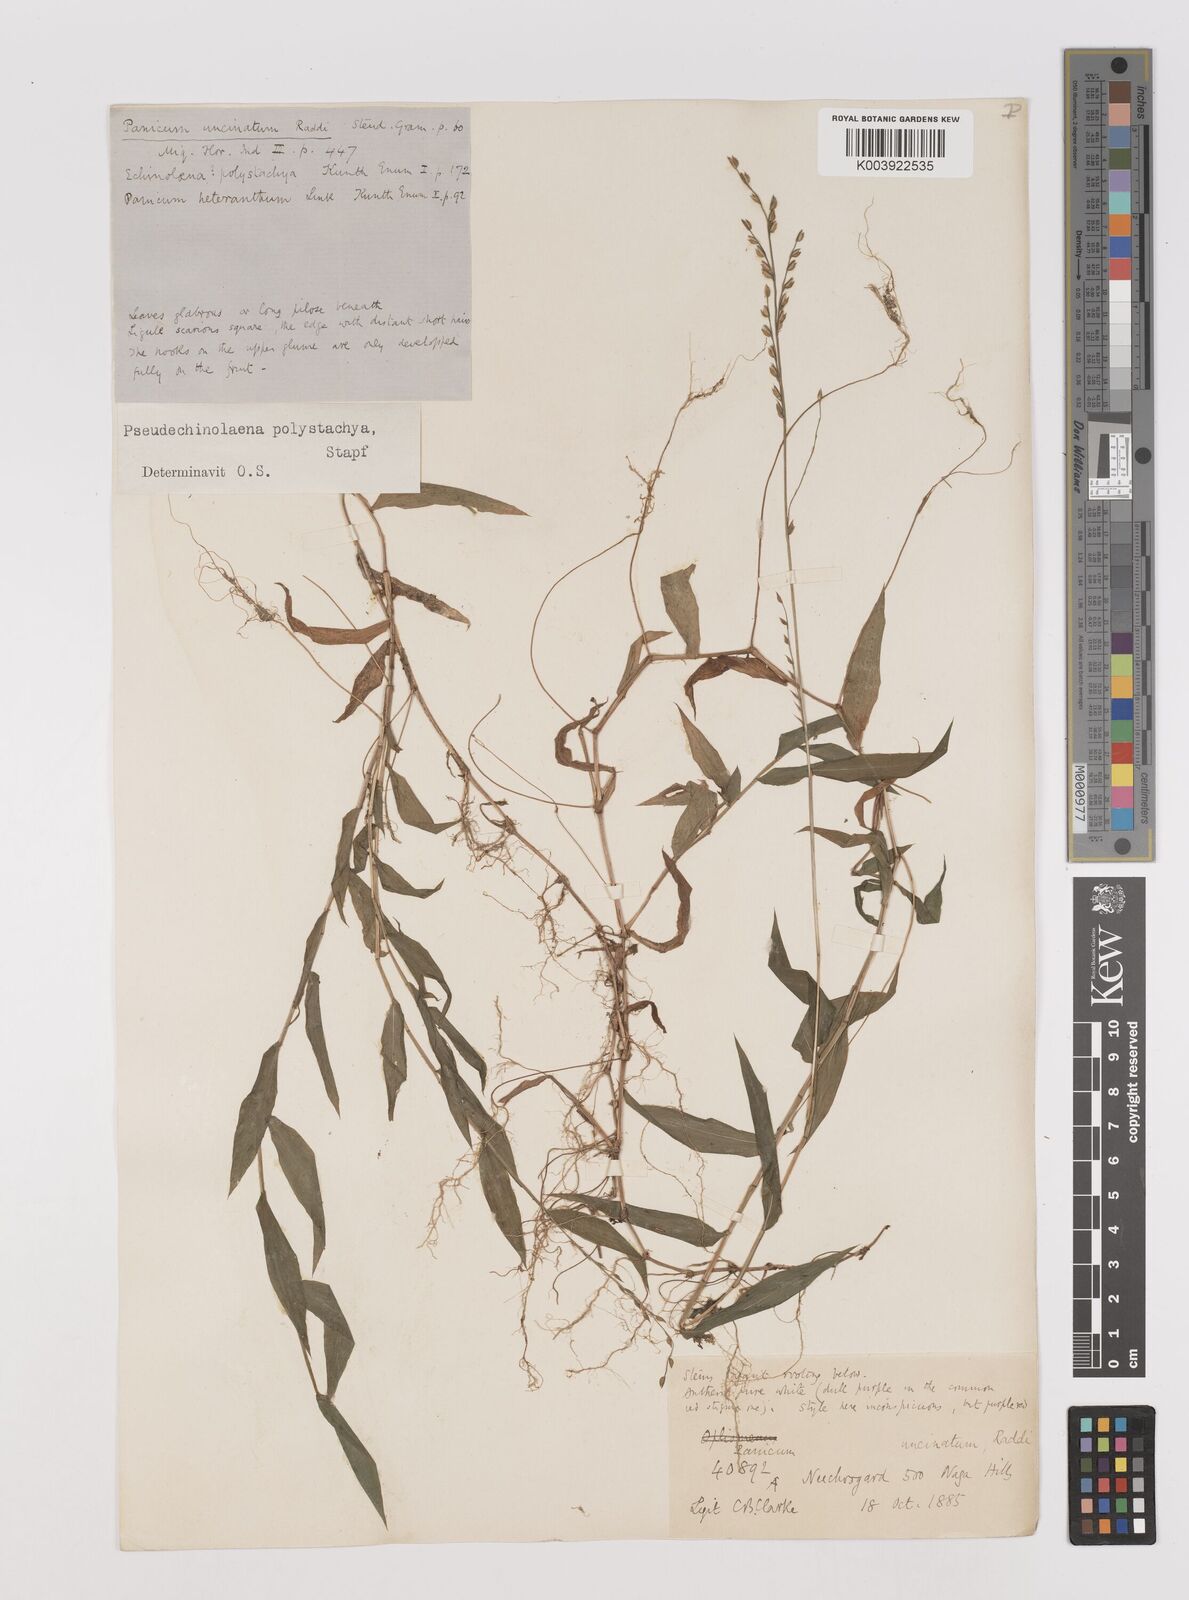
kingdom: Plantae
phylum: Tracheophyta
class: Liliopsida
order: Poales
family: Poaceae
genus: Pseudechinolaena
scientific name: Pseudechinolaena polystachya
